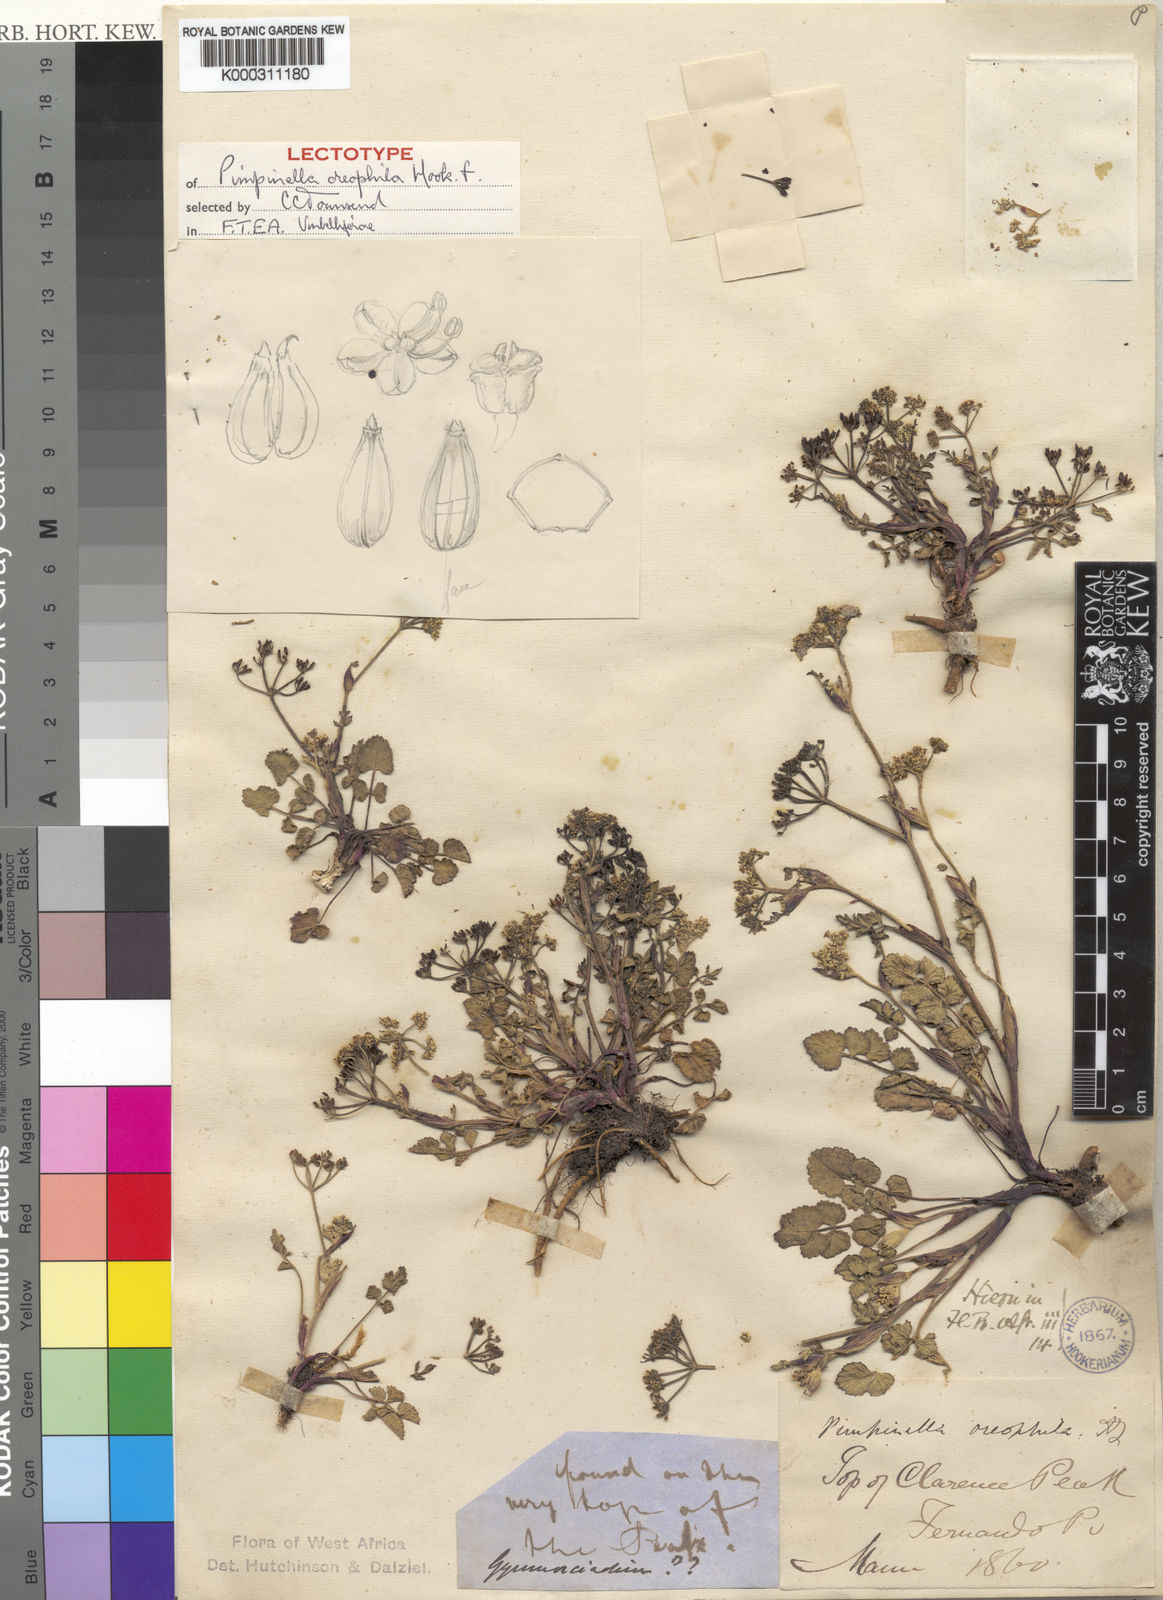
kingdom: Plantae
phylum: Tracheophyta
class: Magnoliopsida
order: Apiales
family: Apiaceae
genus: Pimpinella
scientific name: Pimpinella oreophila
